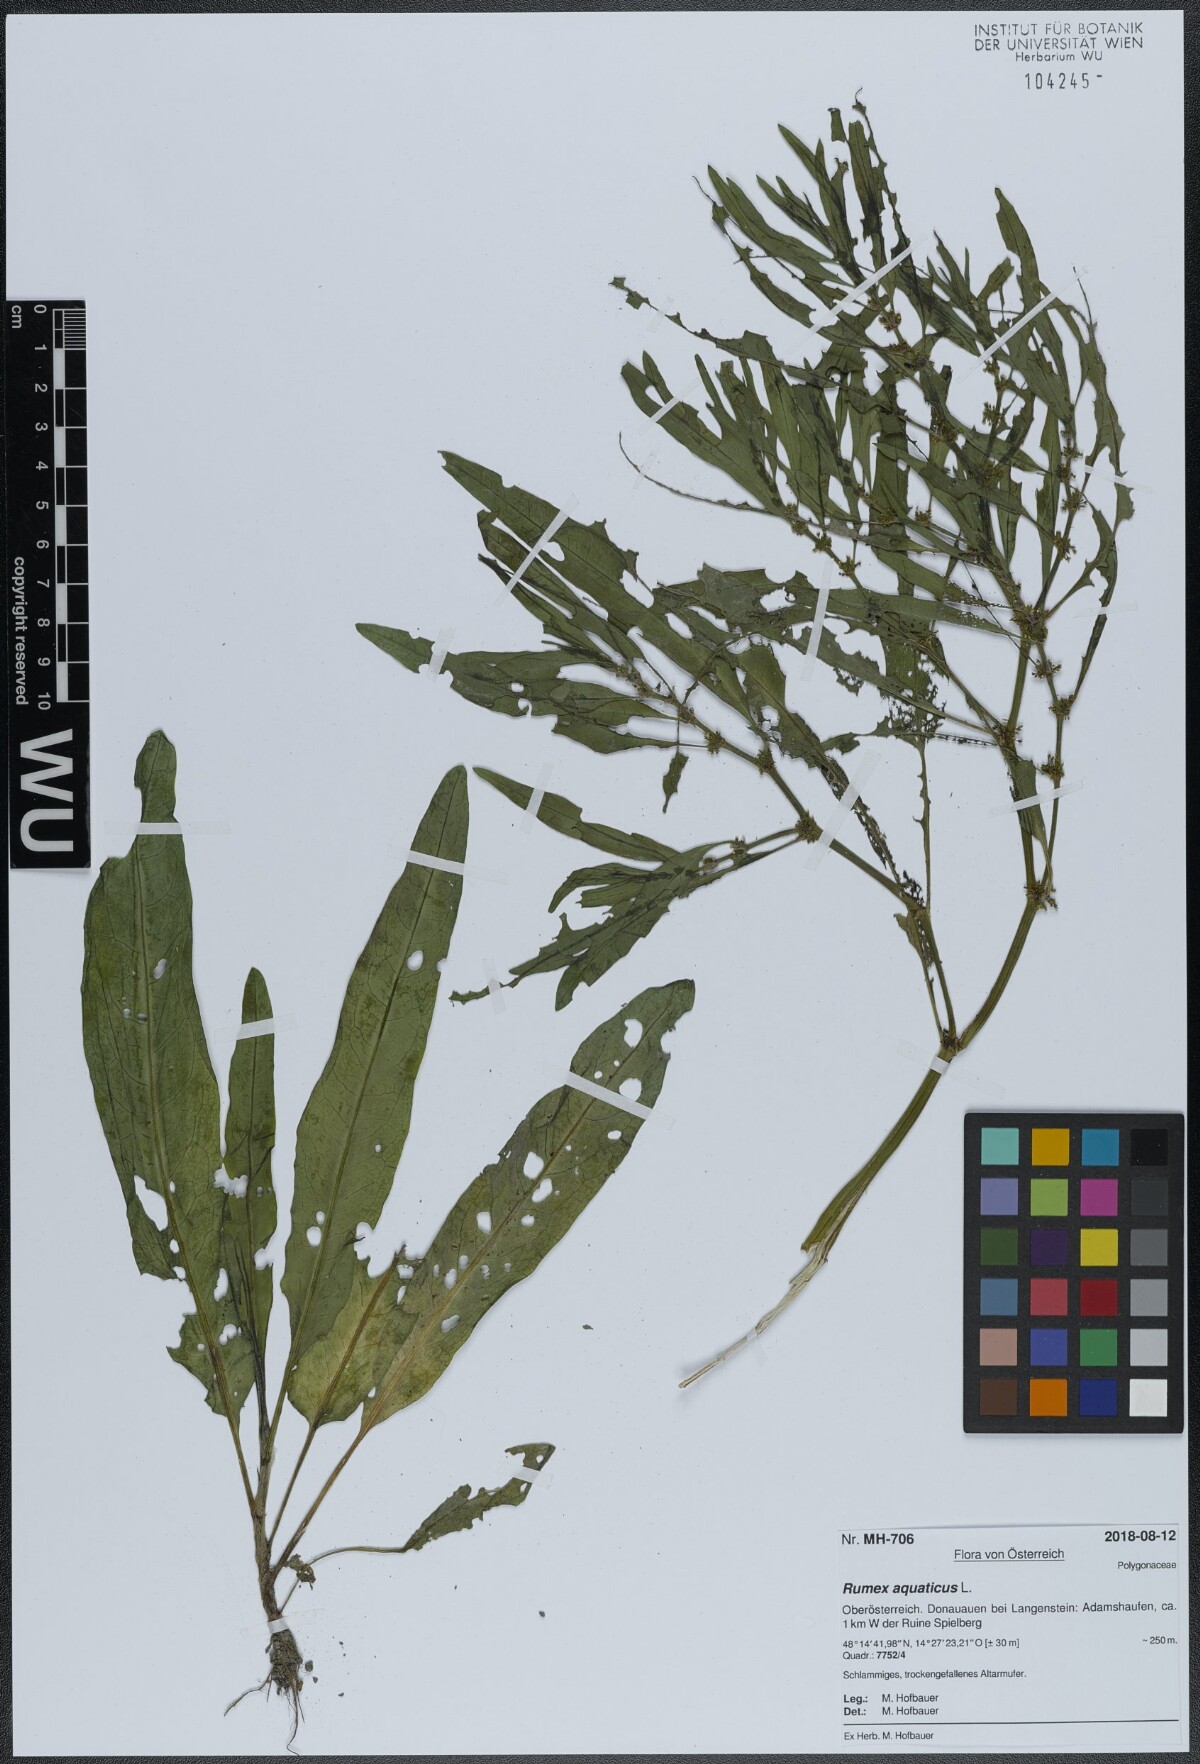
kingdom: Plantae
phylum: Tracheophyta
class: Magnoliopsida
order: Caryophyllales
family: Polygonaceae
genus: Rumex
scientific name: Rumex maritimus
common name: Golden dock
